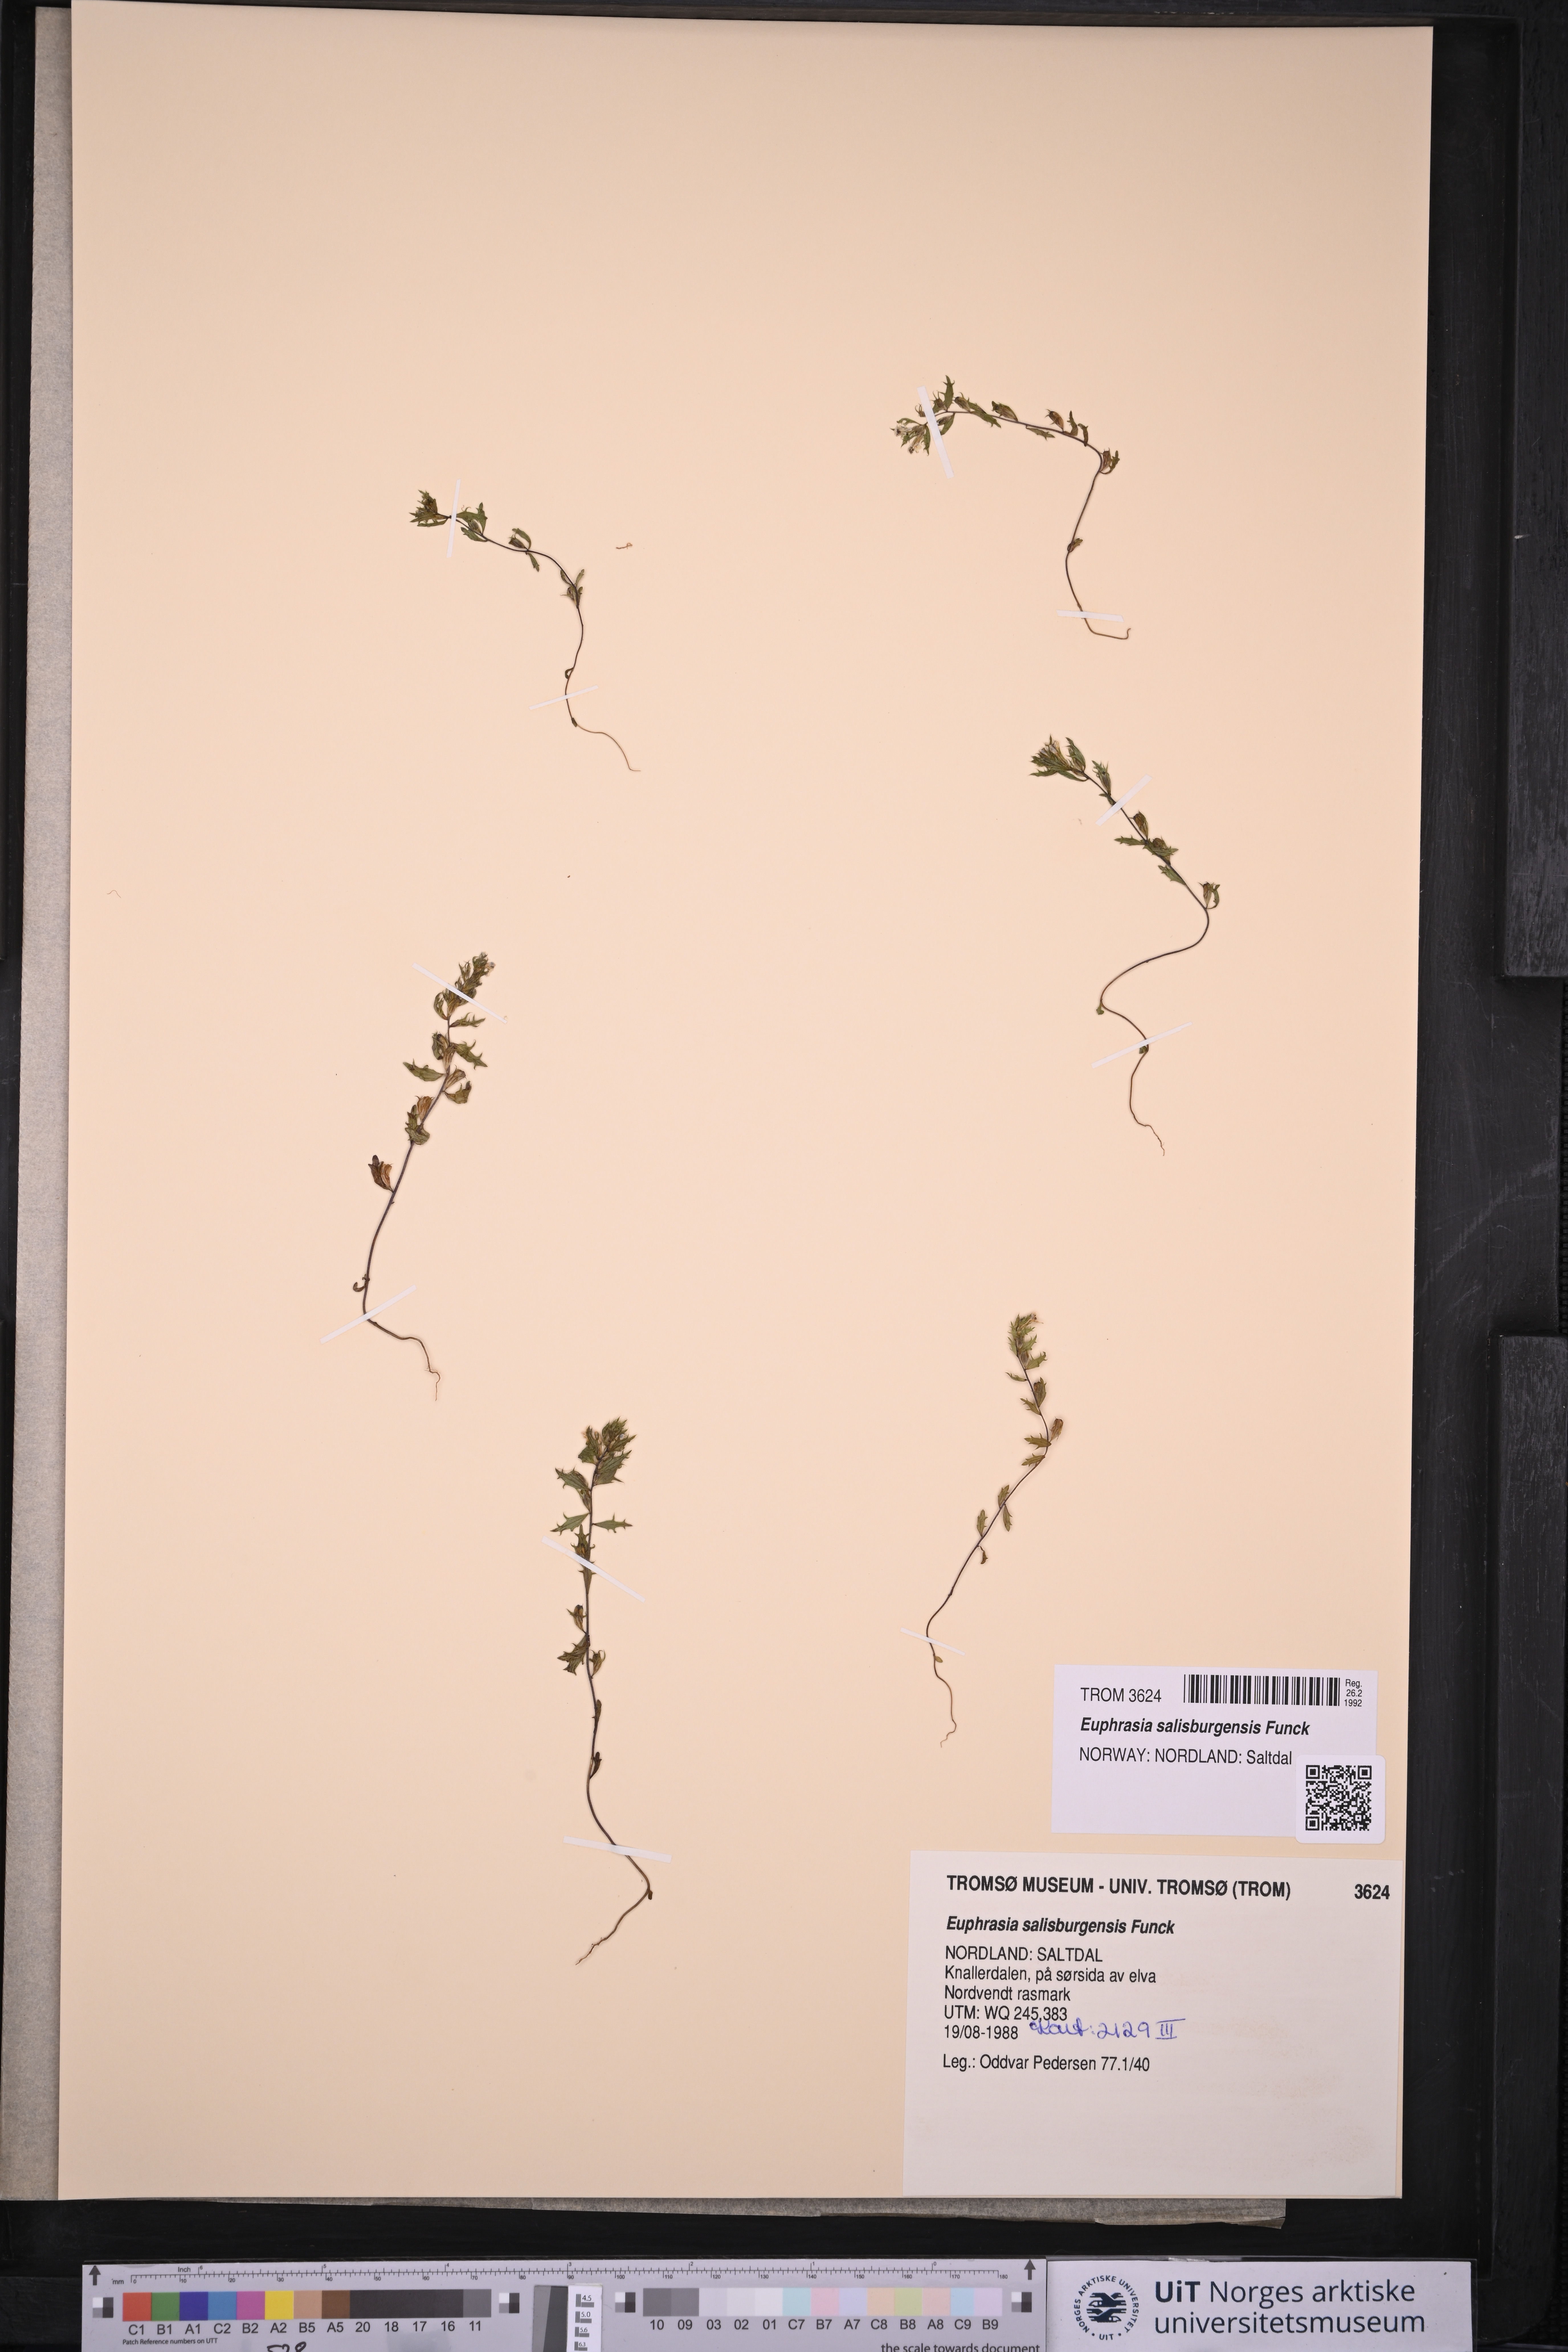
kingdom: Plantae
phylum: Tracheophyta
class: Magnoliopsida
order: Lamiales
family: Orobanchaceae
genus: Euphrasia
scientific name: Euphrasia salisburgensis
